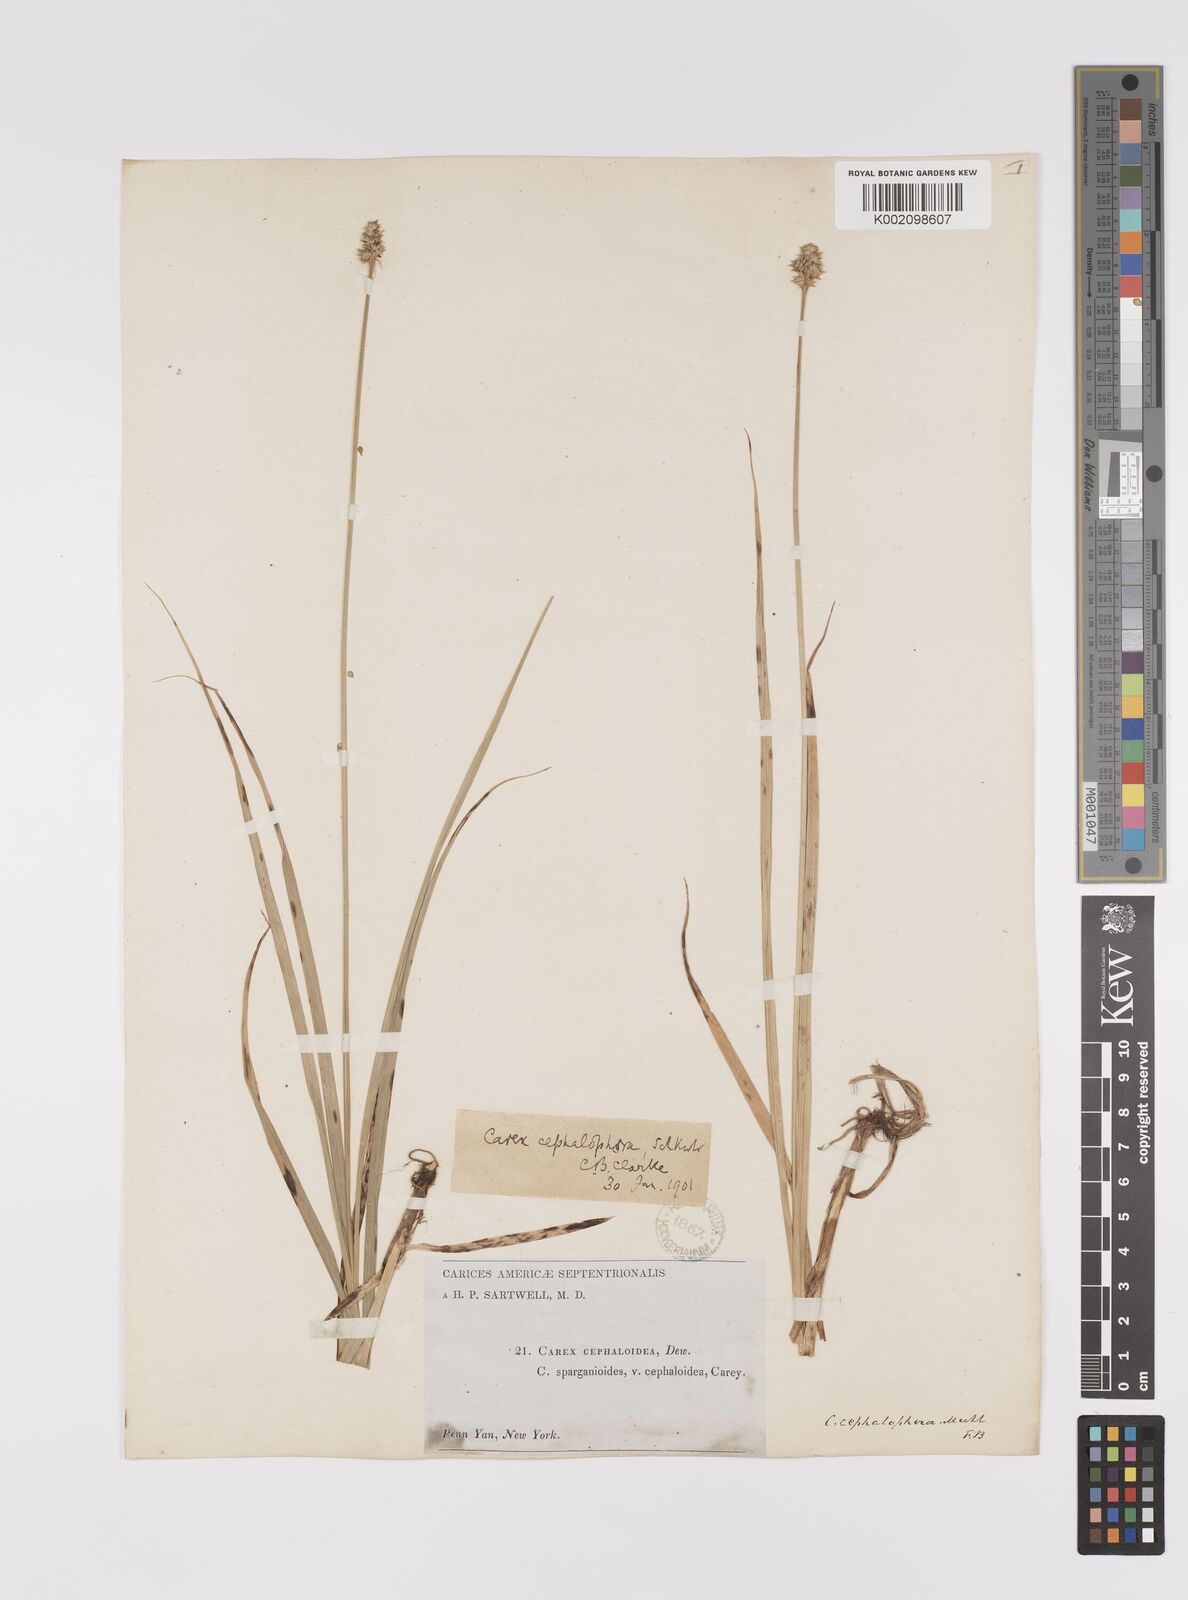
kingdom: Plantae
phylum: Tracheophyta
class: Liliopsida
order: Poales
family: Cyperaceae
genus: Carex
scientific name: Carex cephalophora
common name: Oval-headed sedge
